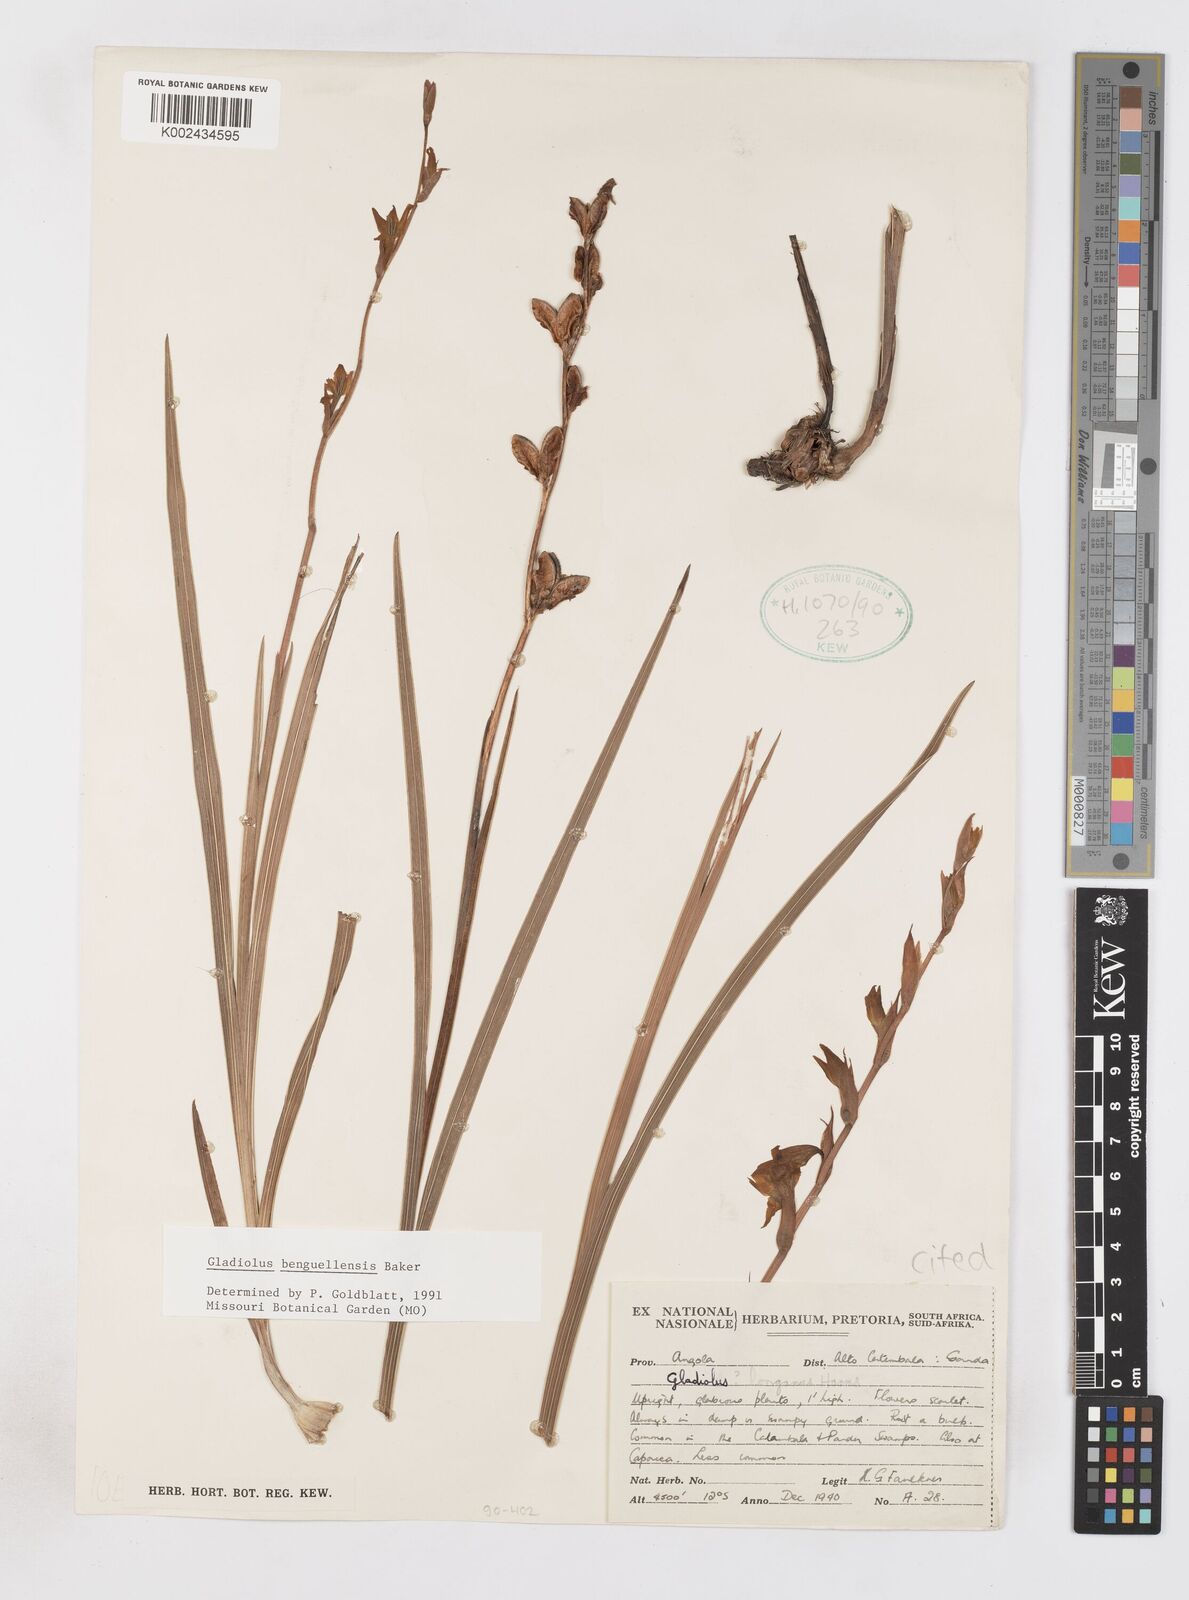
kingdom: Plantae
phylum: Tracheophyta
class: Liliopsida
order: Asparagales
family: Iridaceae
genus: Gladiolus
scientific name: Gladiolus benguellensis
